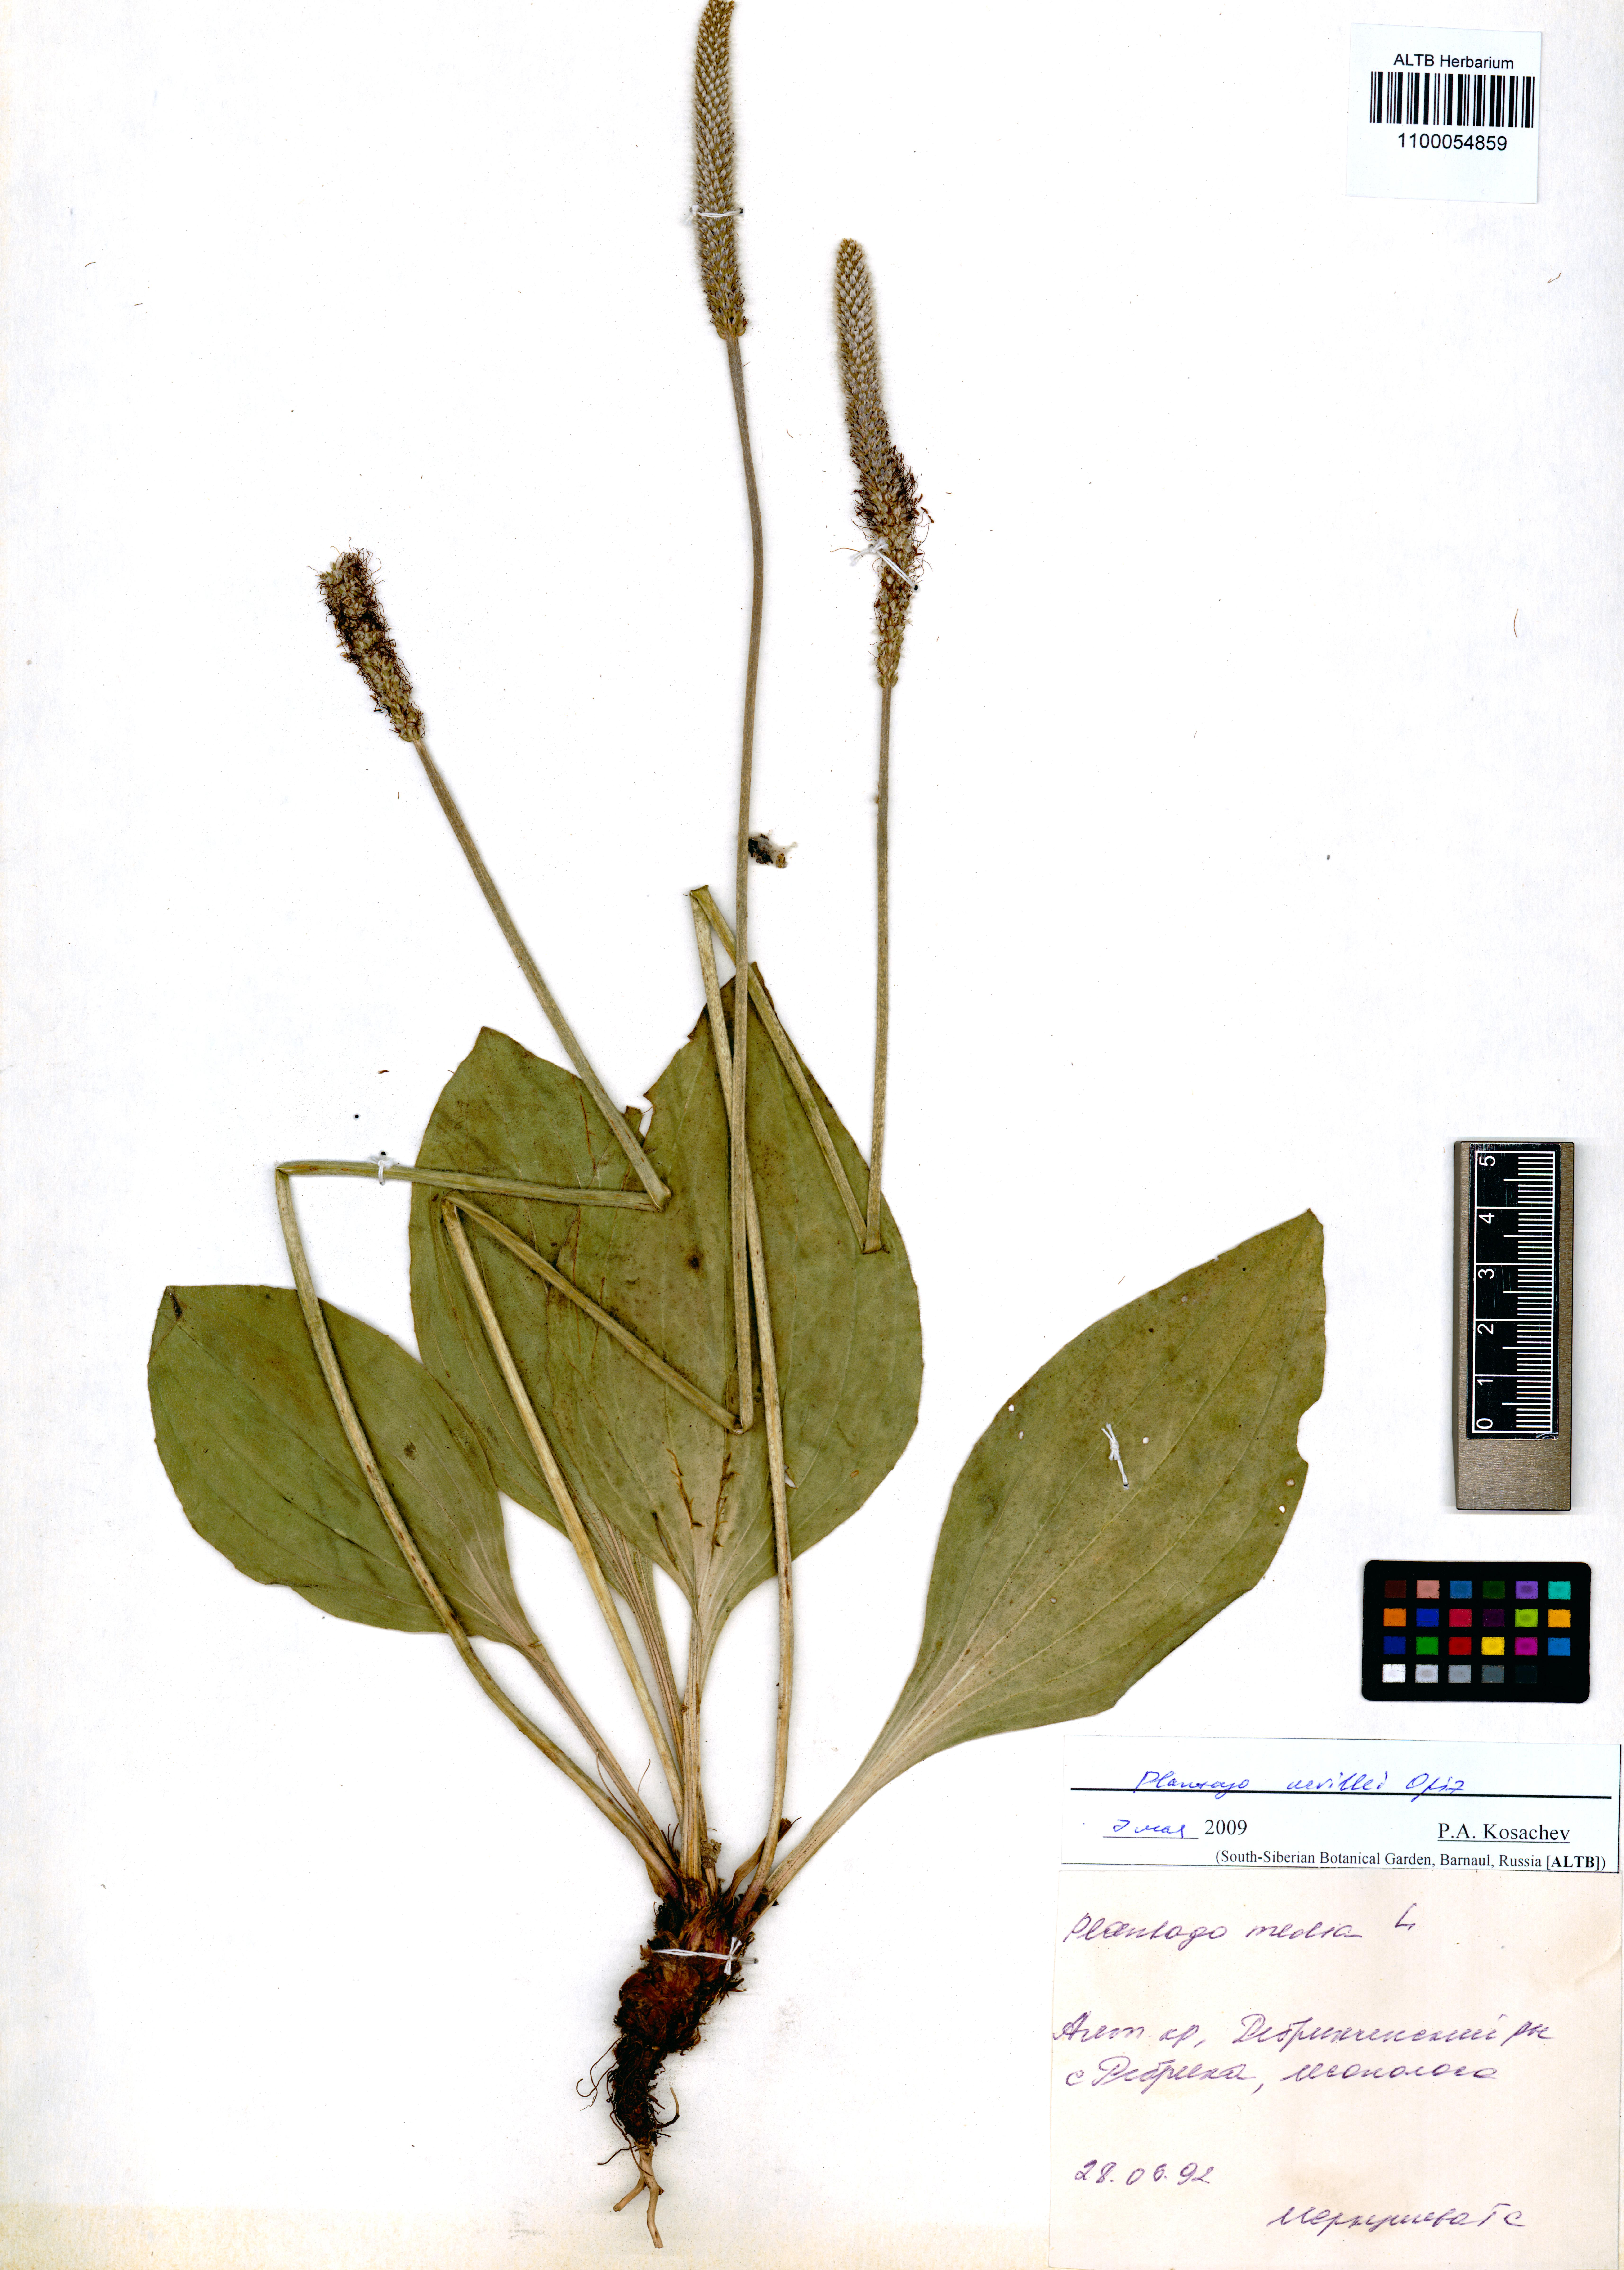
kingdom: Plantae
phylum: Tracheophyta
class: Magnoliopsida
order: Lamiales
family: Plantaginaceae
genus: Plantago
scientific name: Plantago urvillei
